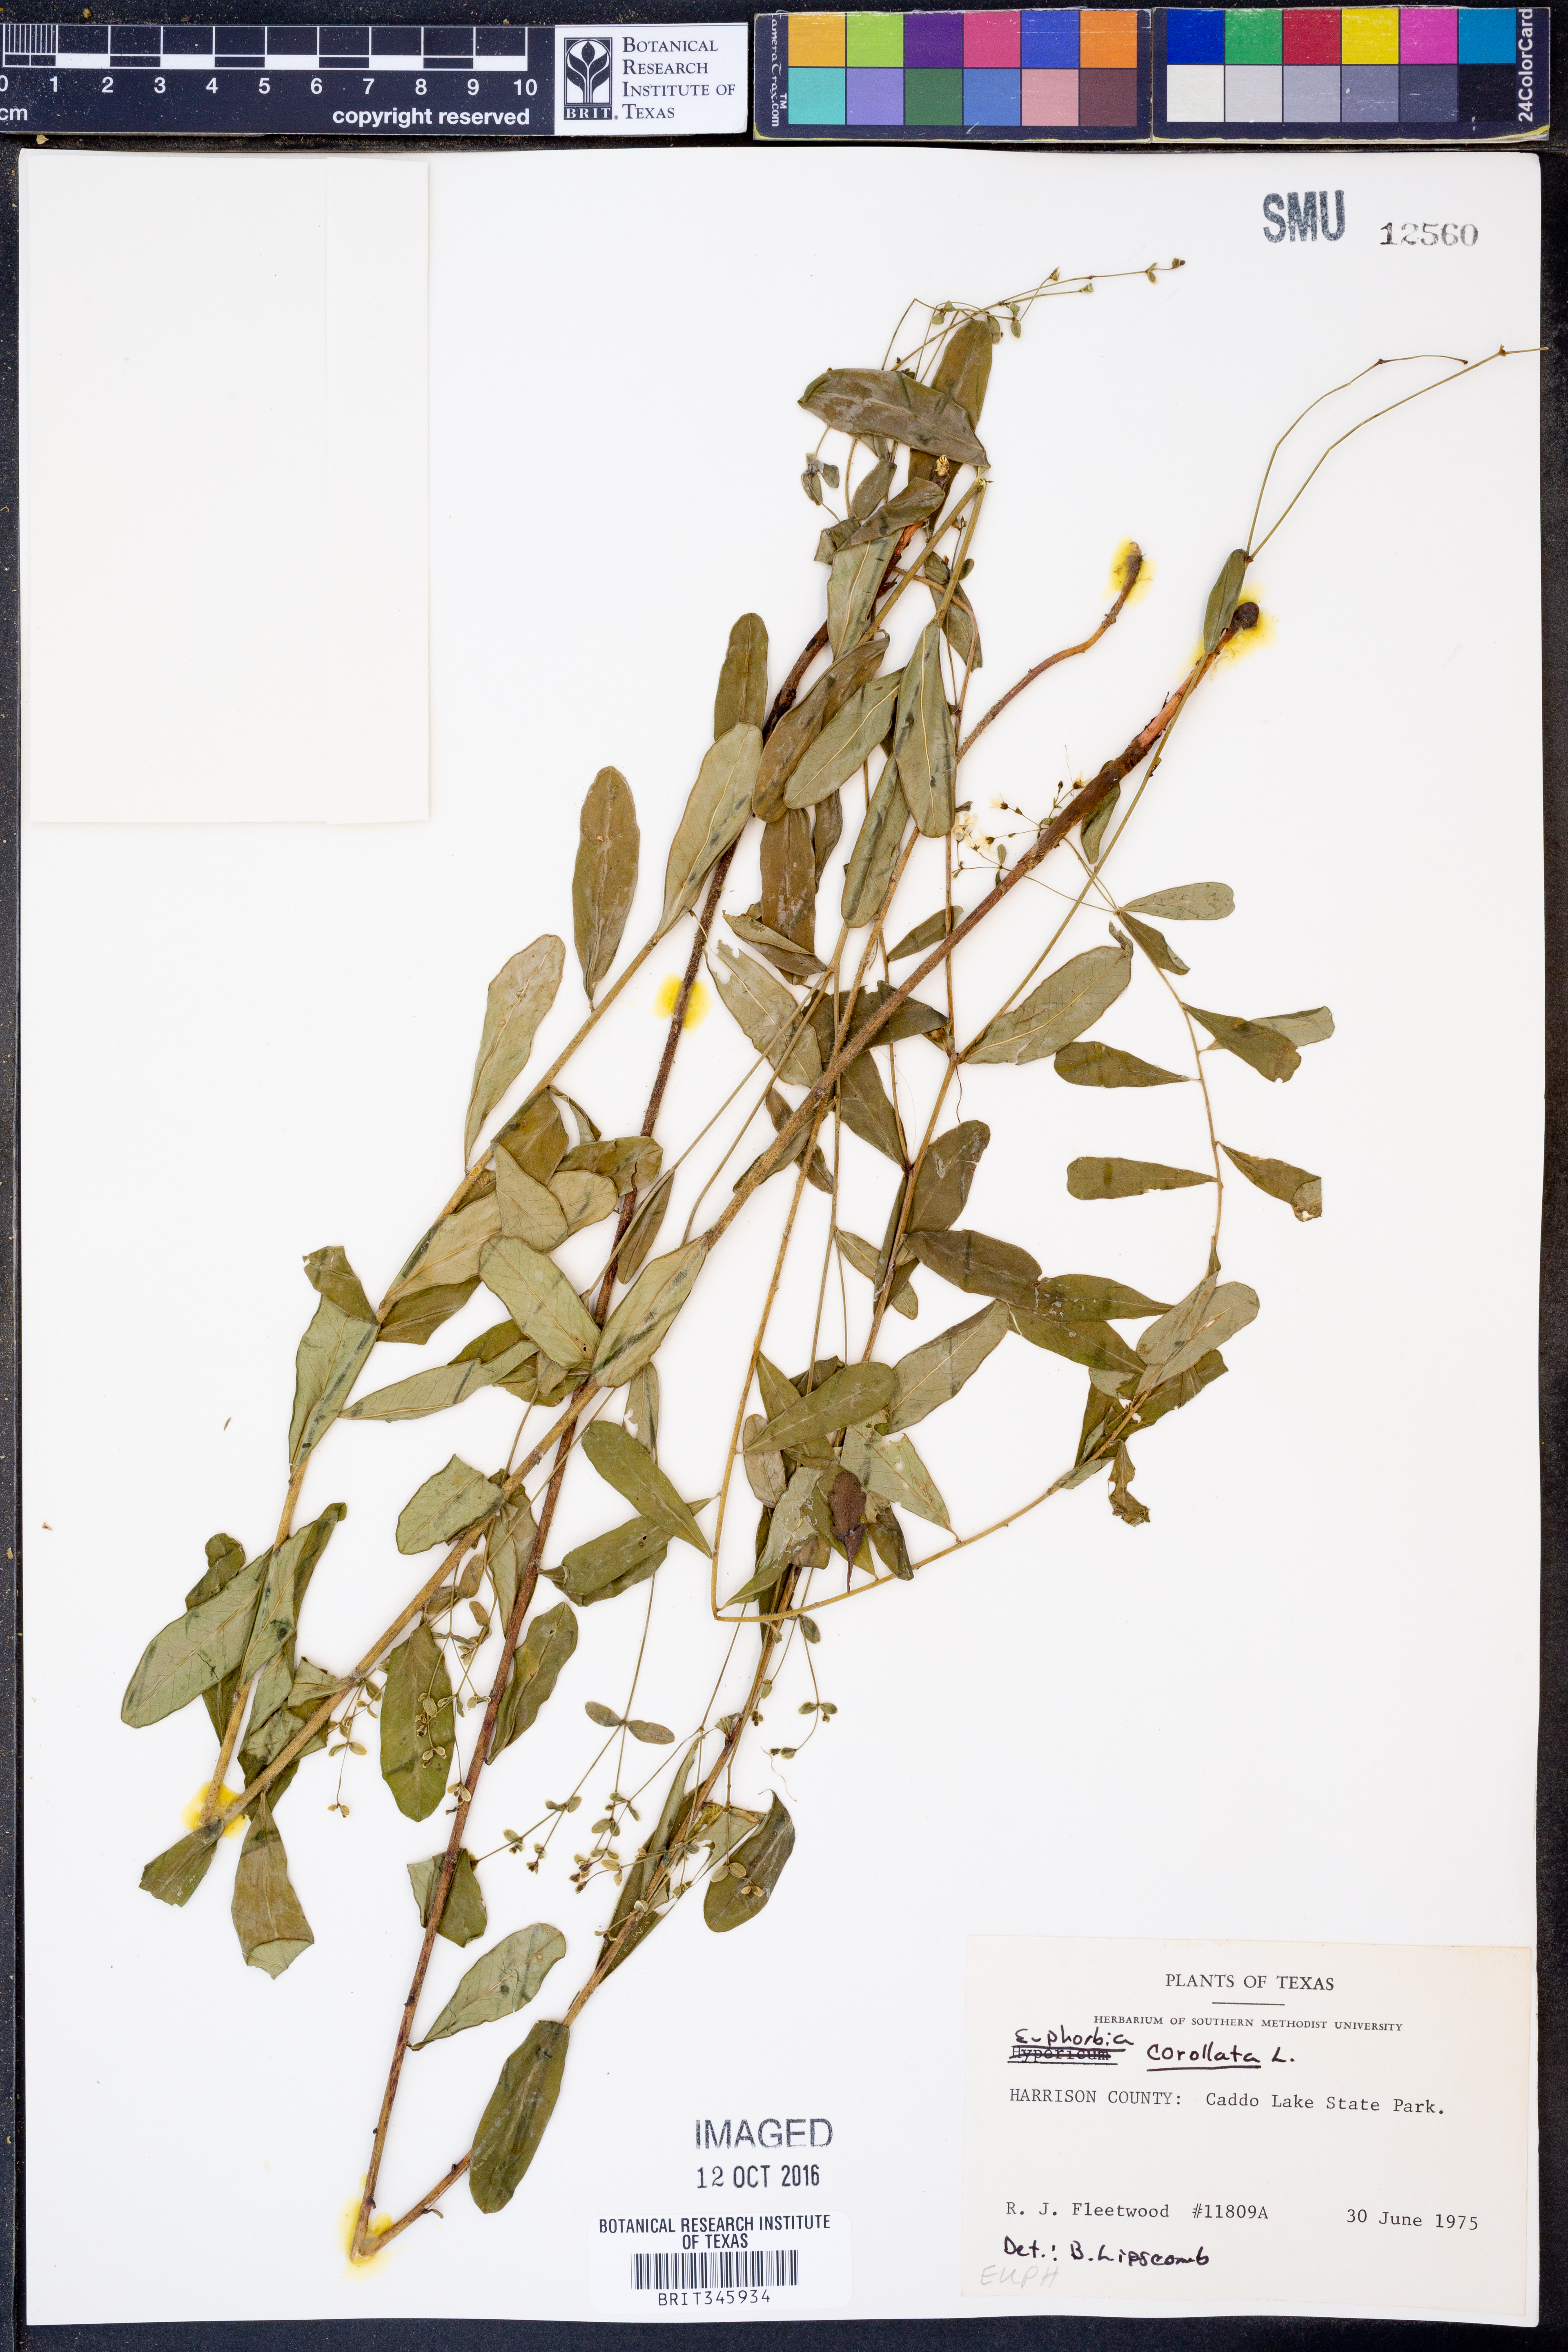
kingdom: Plantae
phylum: Tracheophyta
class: Magnoliopsida
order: Malpighiales
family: Euphorbiaceae
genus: Euphorbia
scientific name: Euphorbia corollata
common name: Flowering spurge
